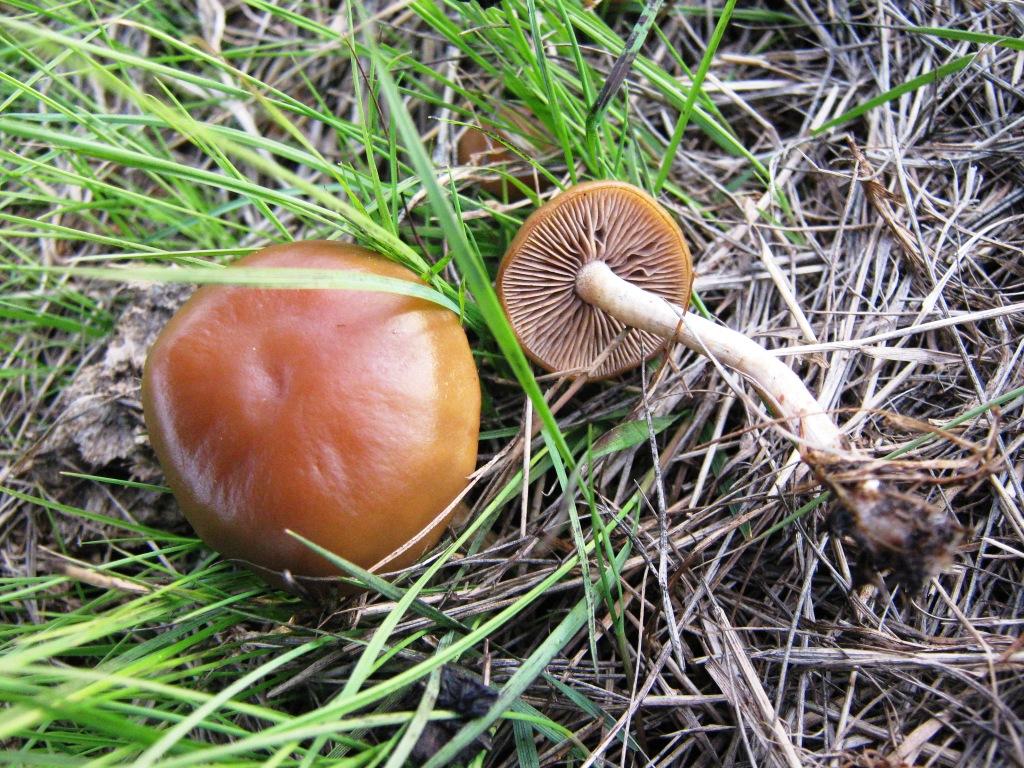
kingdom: Fungi
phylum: Basidiomycota
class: Agaricomycetes
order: Agaricales
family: Strophariaceae
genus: Hypholoma
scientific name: Hypholoma subericaeum
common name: eng-svovlhat
